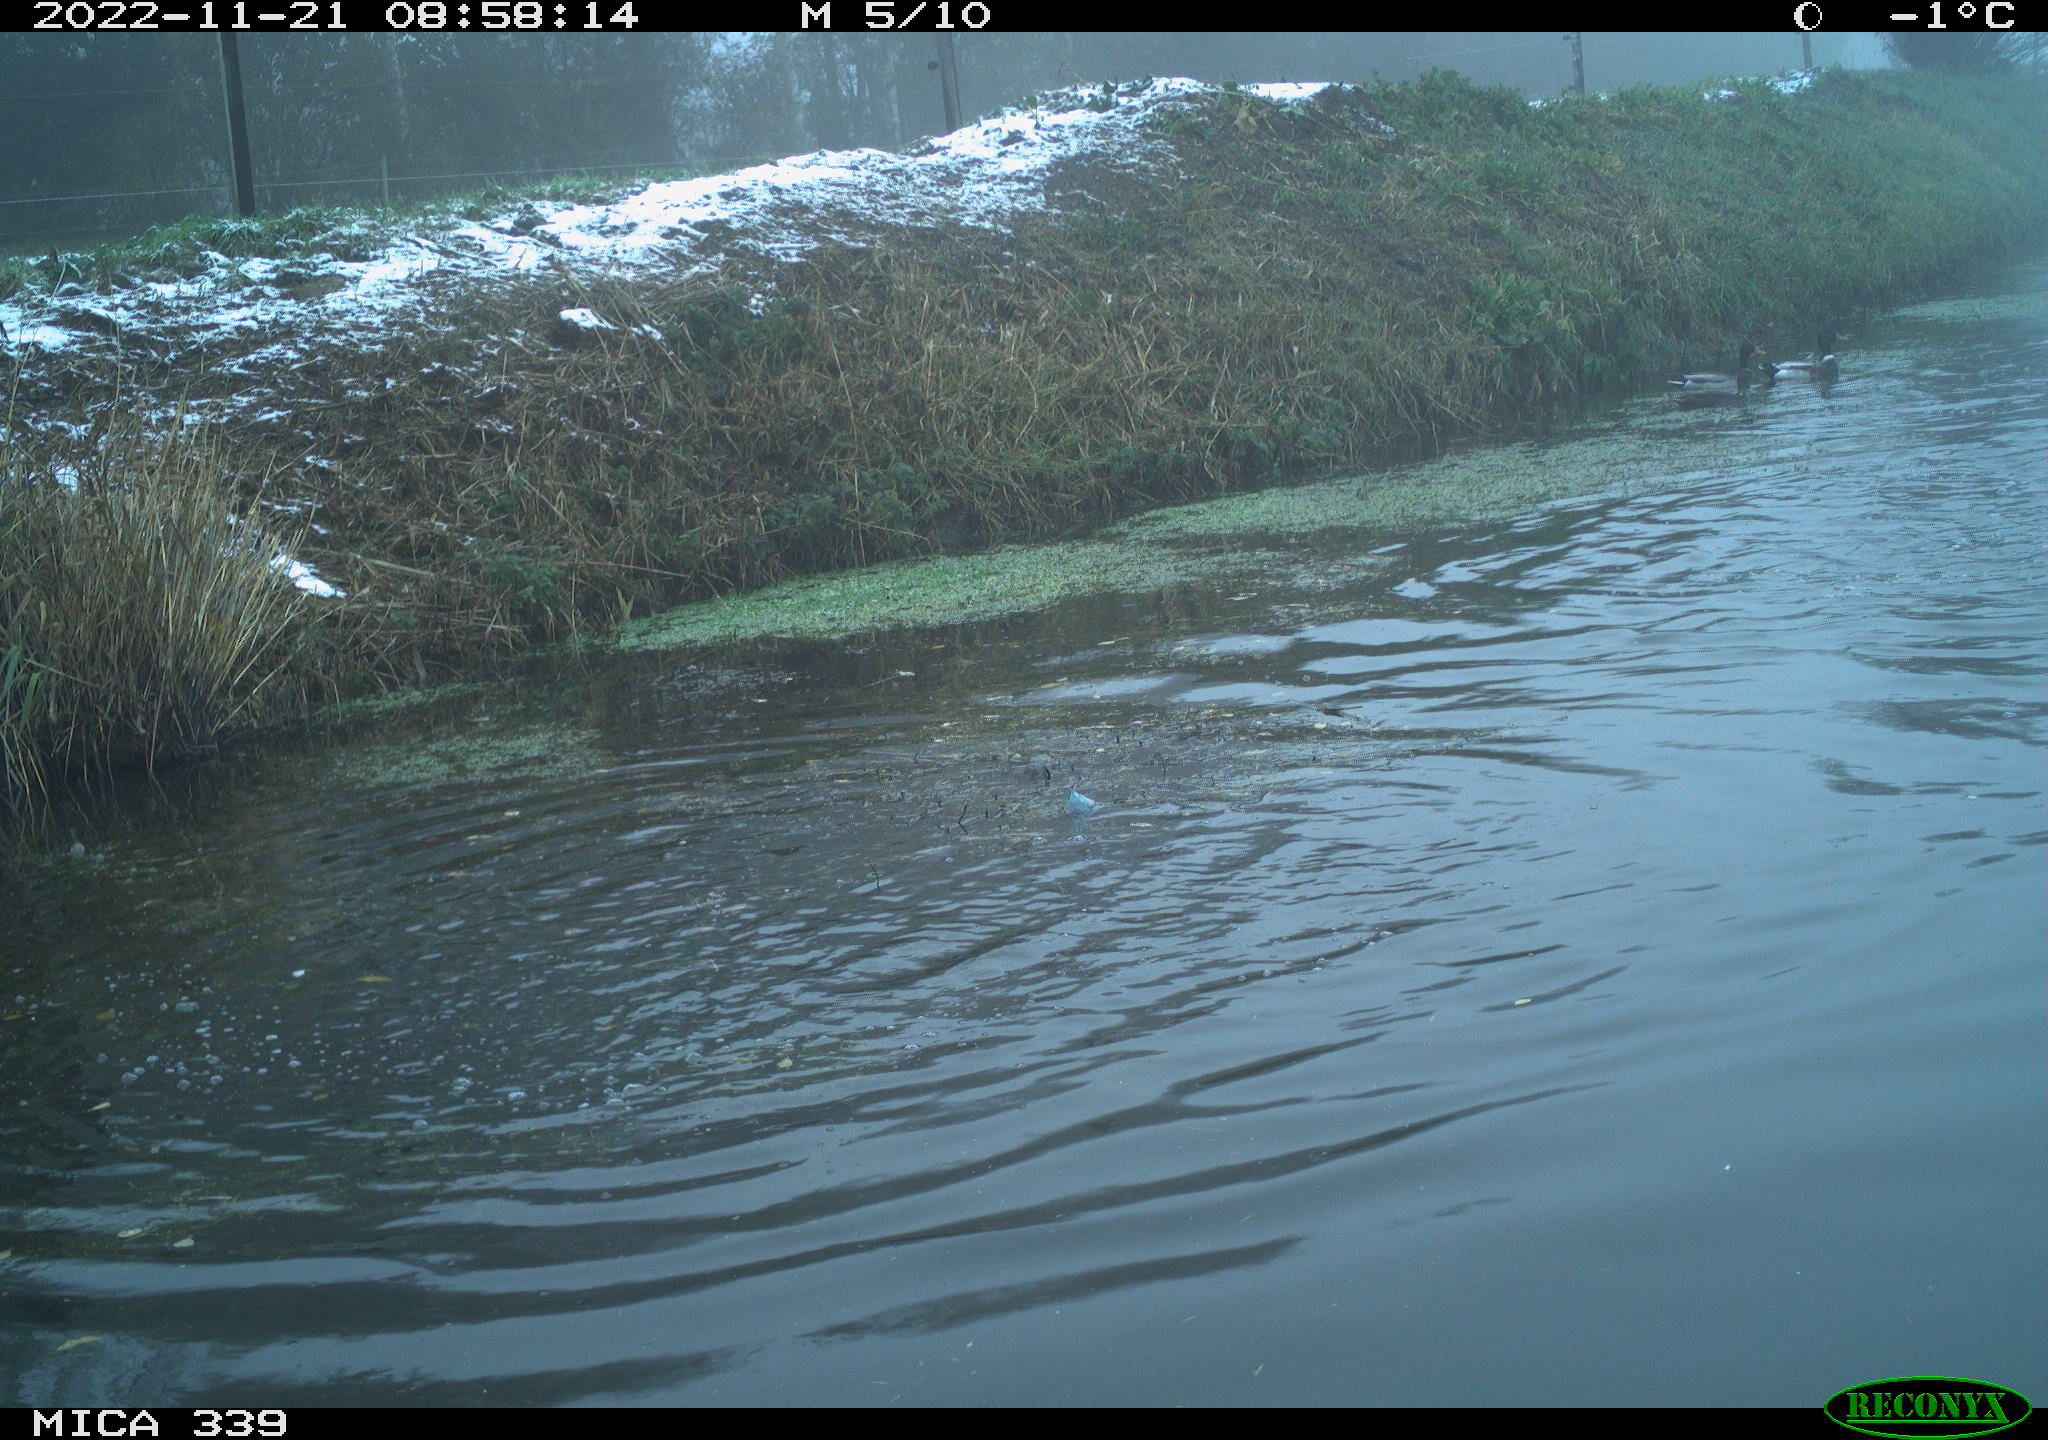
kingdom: Animalia
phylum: Chordata
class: Aves
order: Anseriformes
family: Anatidae
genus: Anas
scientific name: Anas platyrhynchos
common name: Mallard
